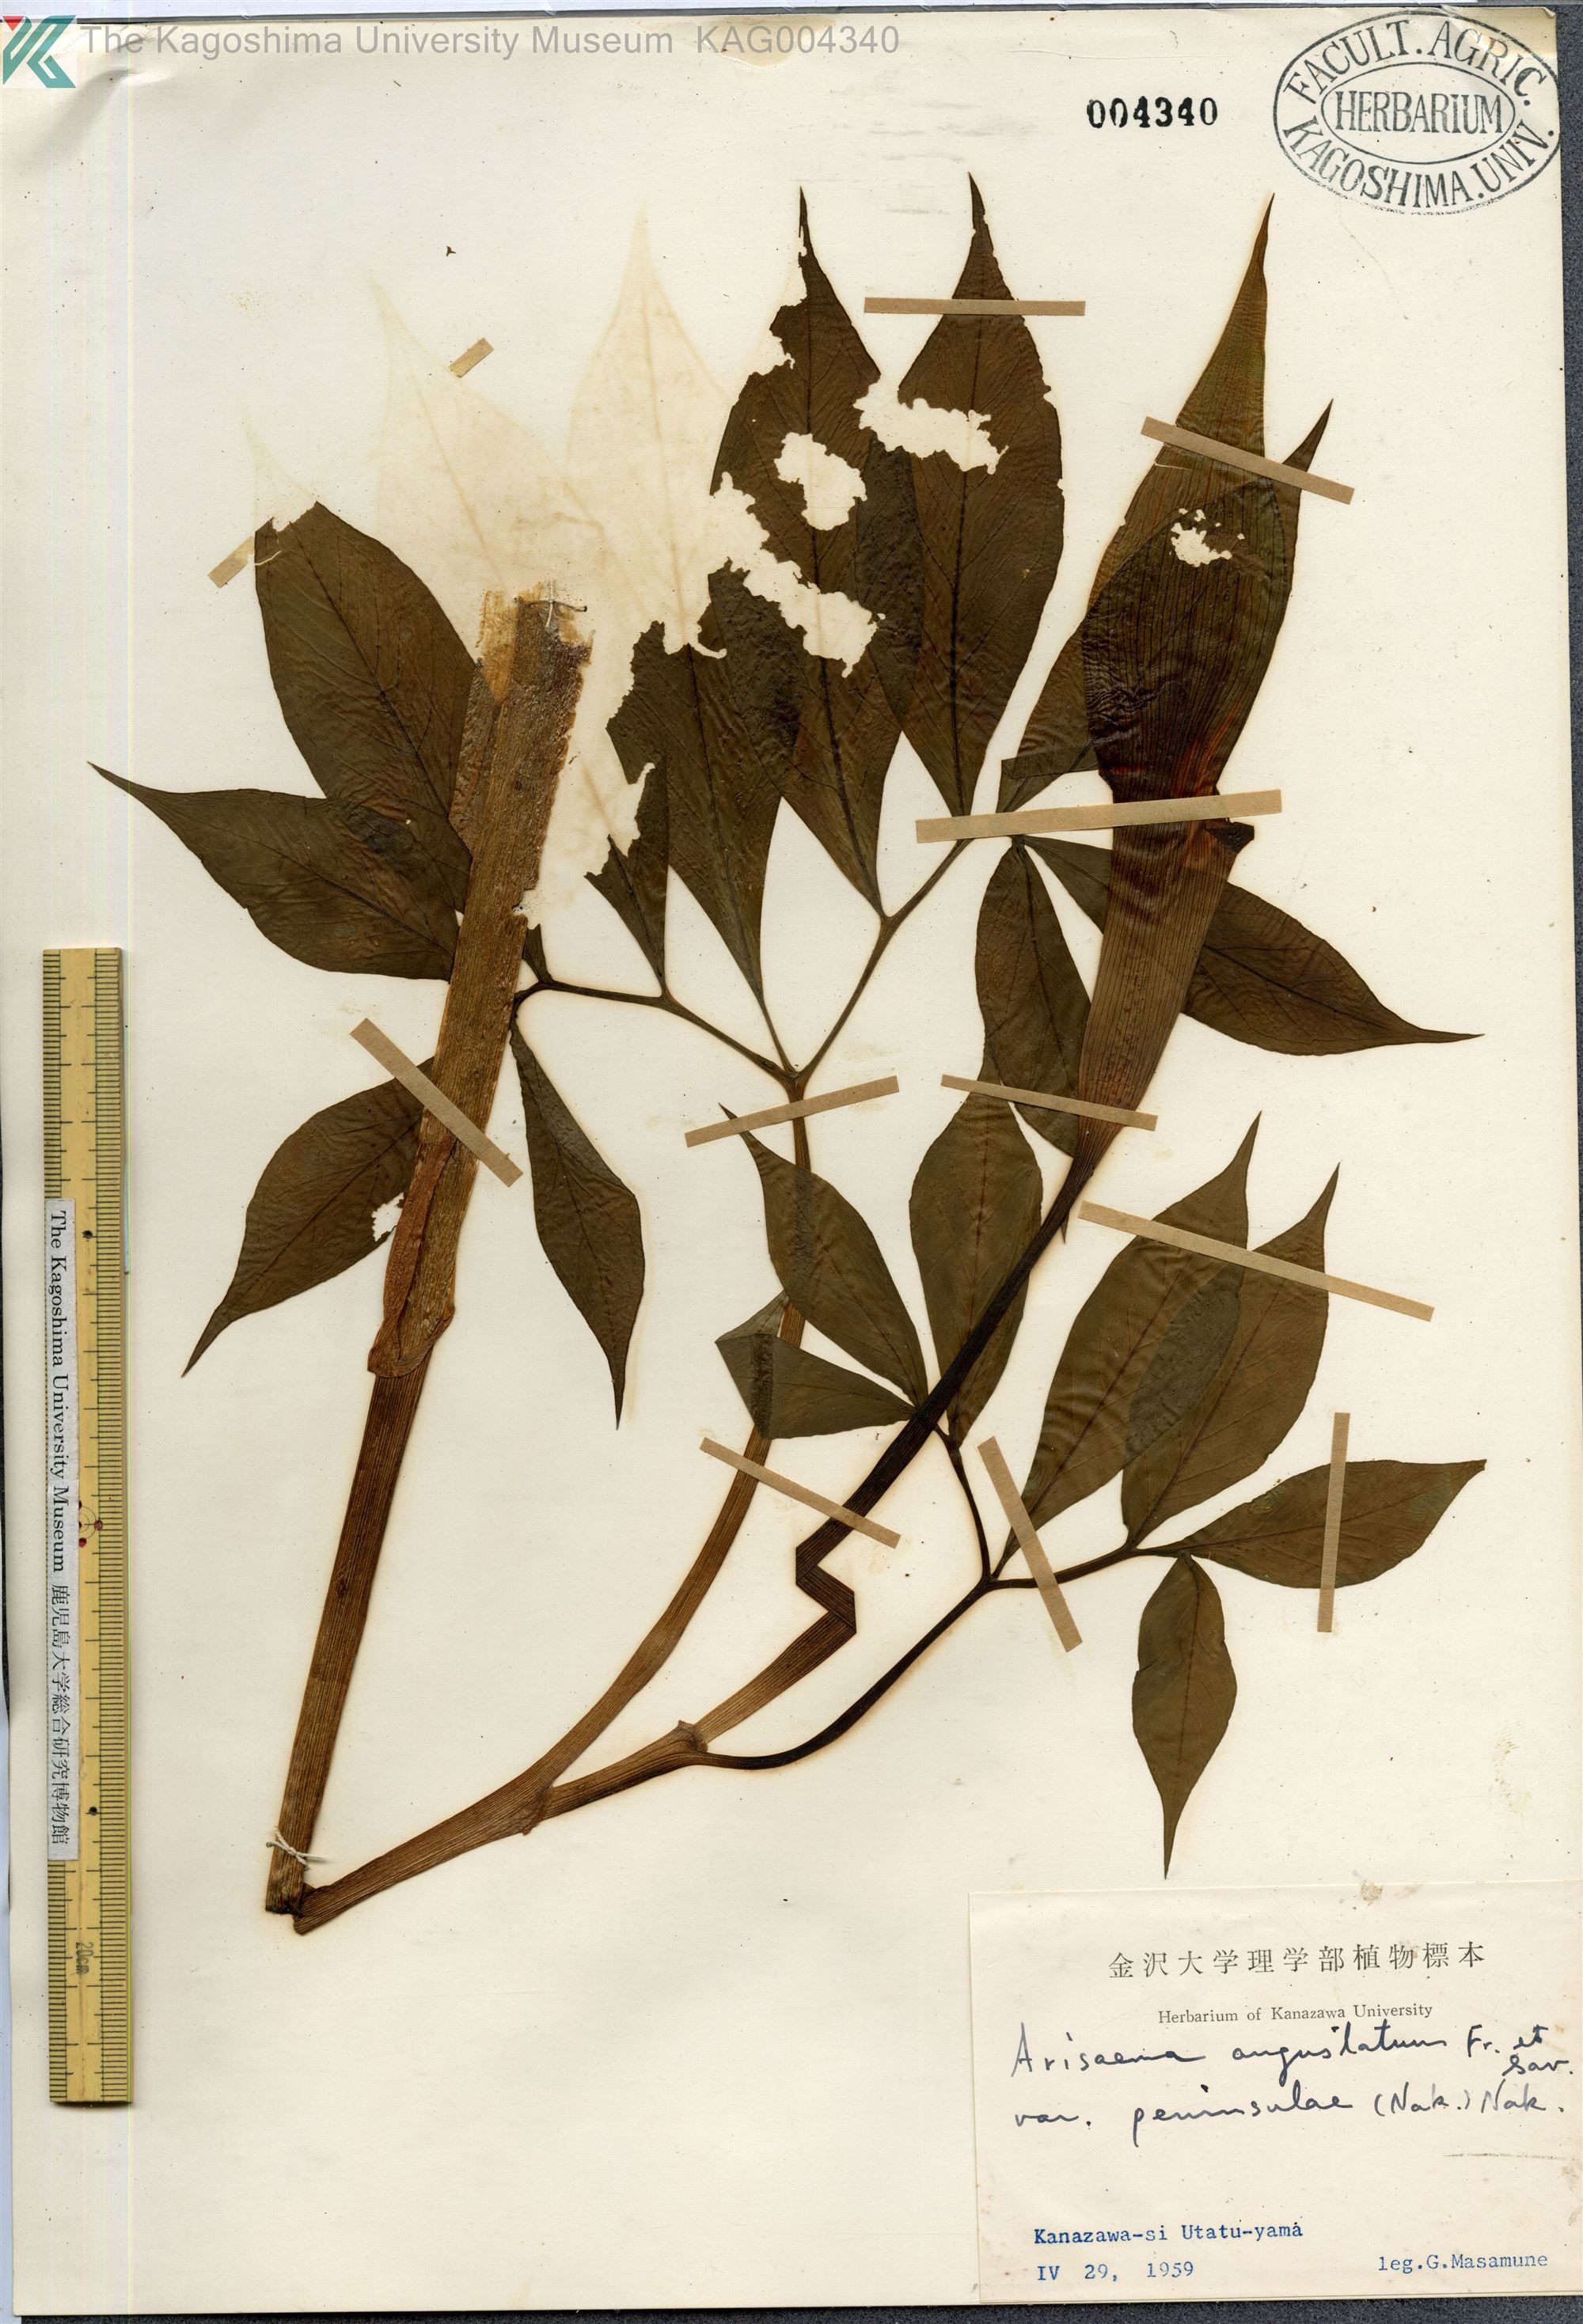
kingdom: Plantae
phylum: Tracheophyta
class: Liliopsida
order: Alismatales
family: Araceae
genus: Arisaema
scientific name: Arisaema serratum
